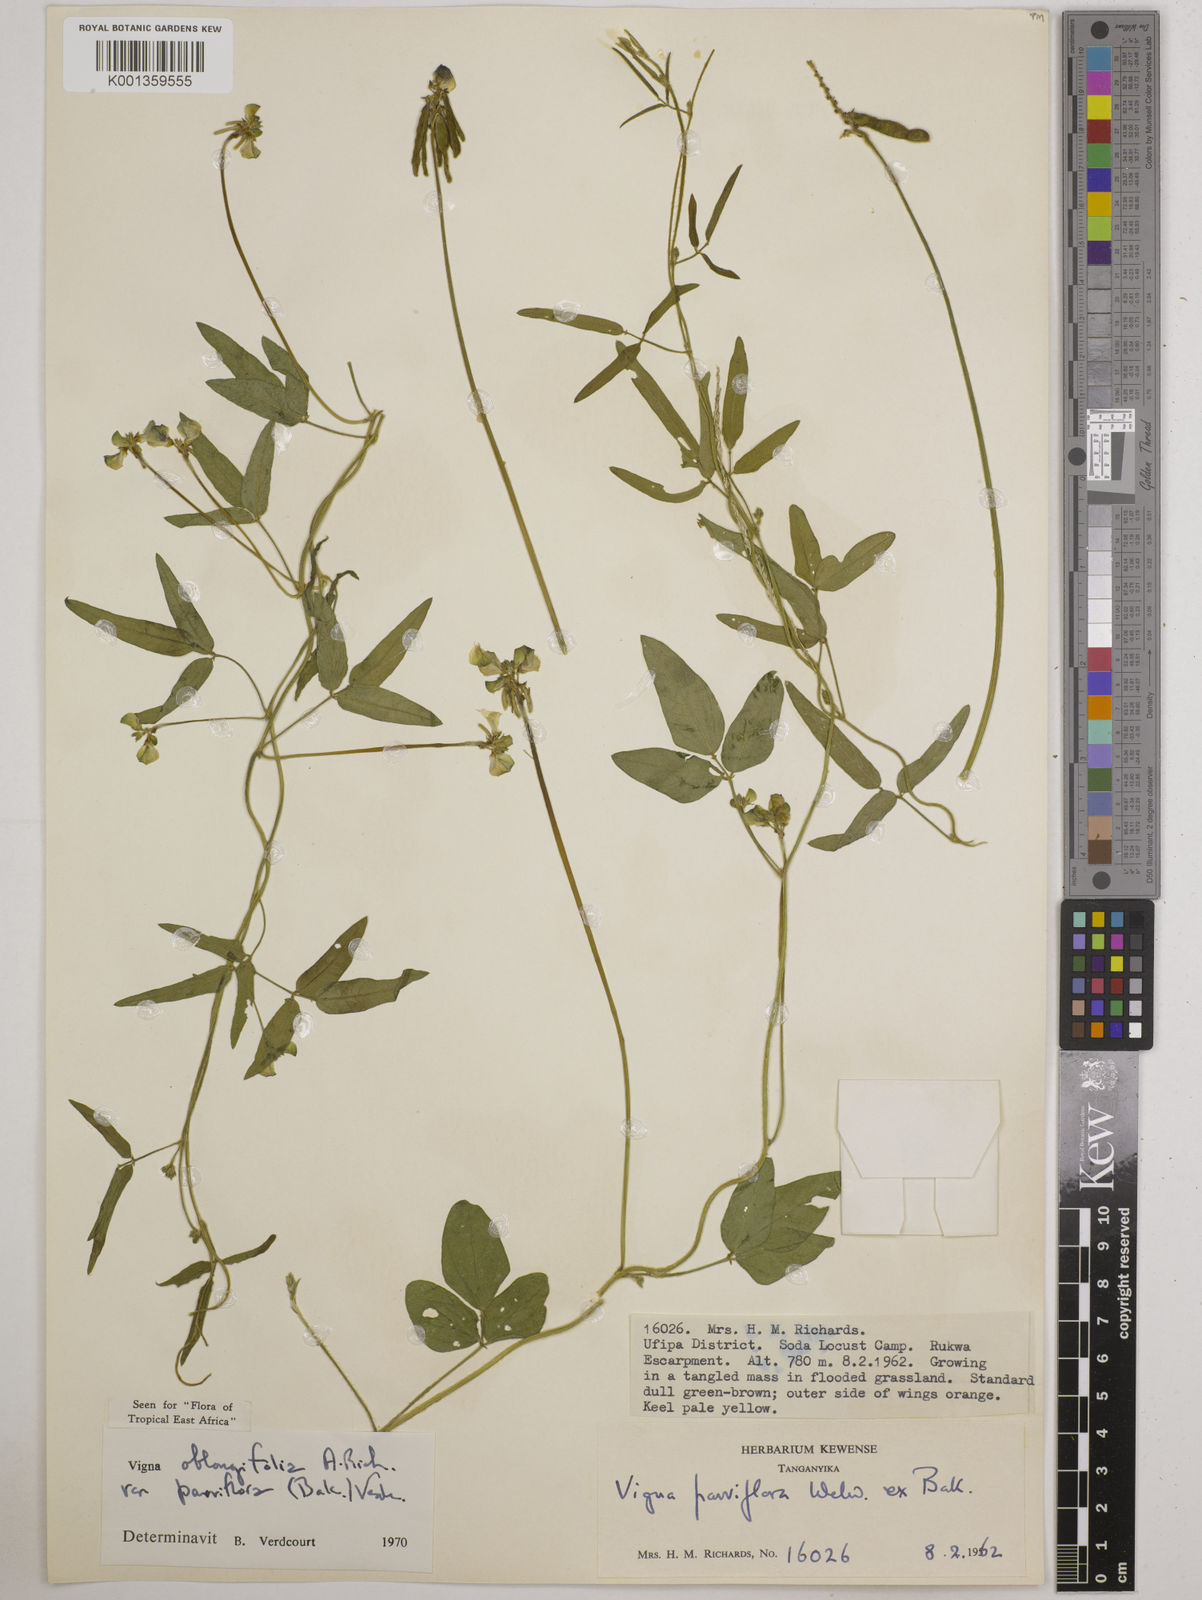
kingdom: Plantae
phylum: Tracheophyta
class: Magnoliopsida
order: Fabales
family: Fabaceae
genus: Vigna
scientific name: Vigna
